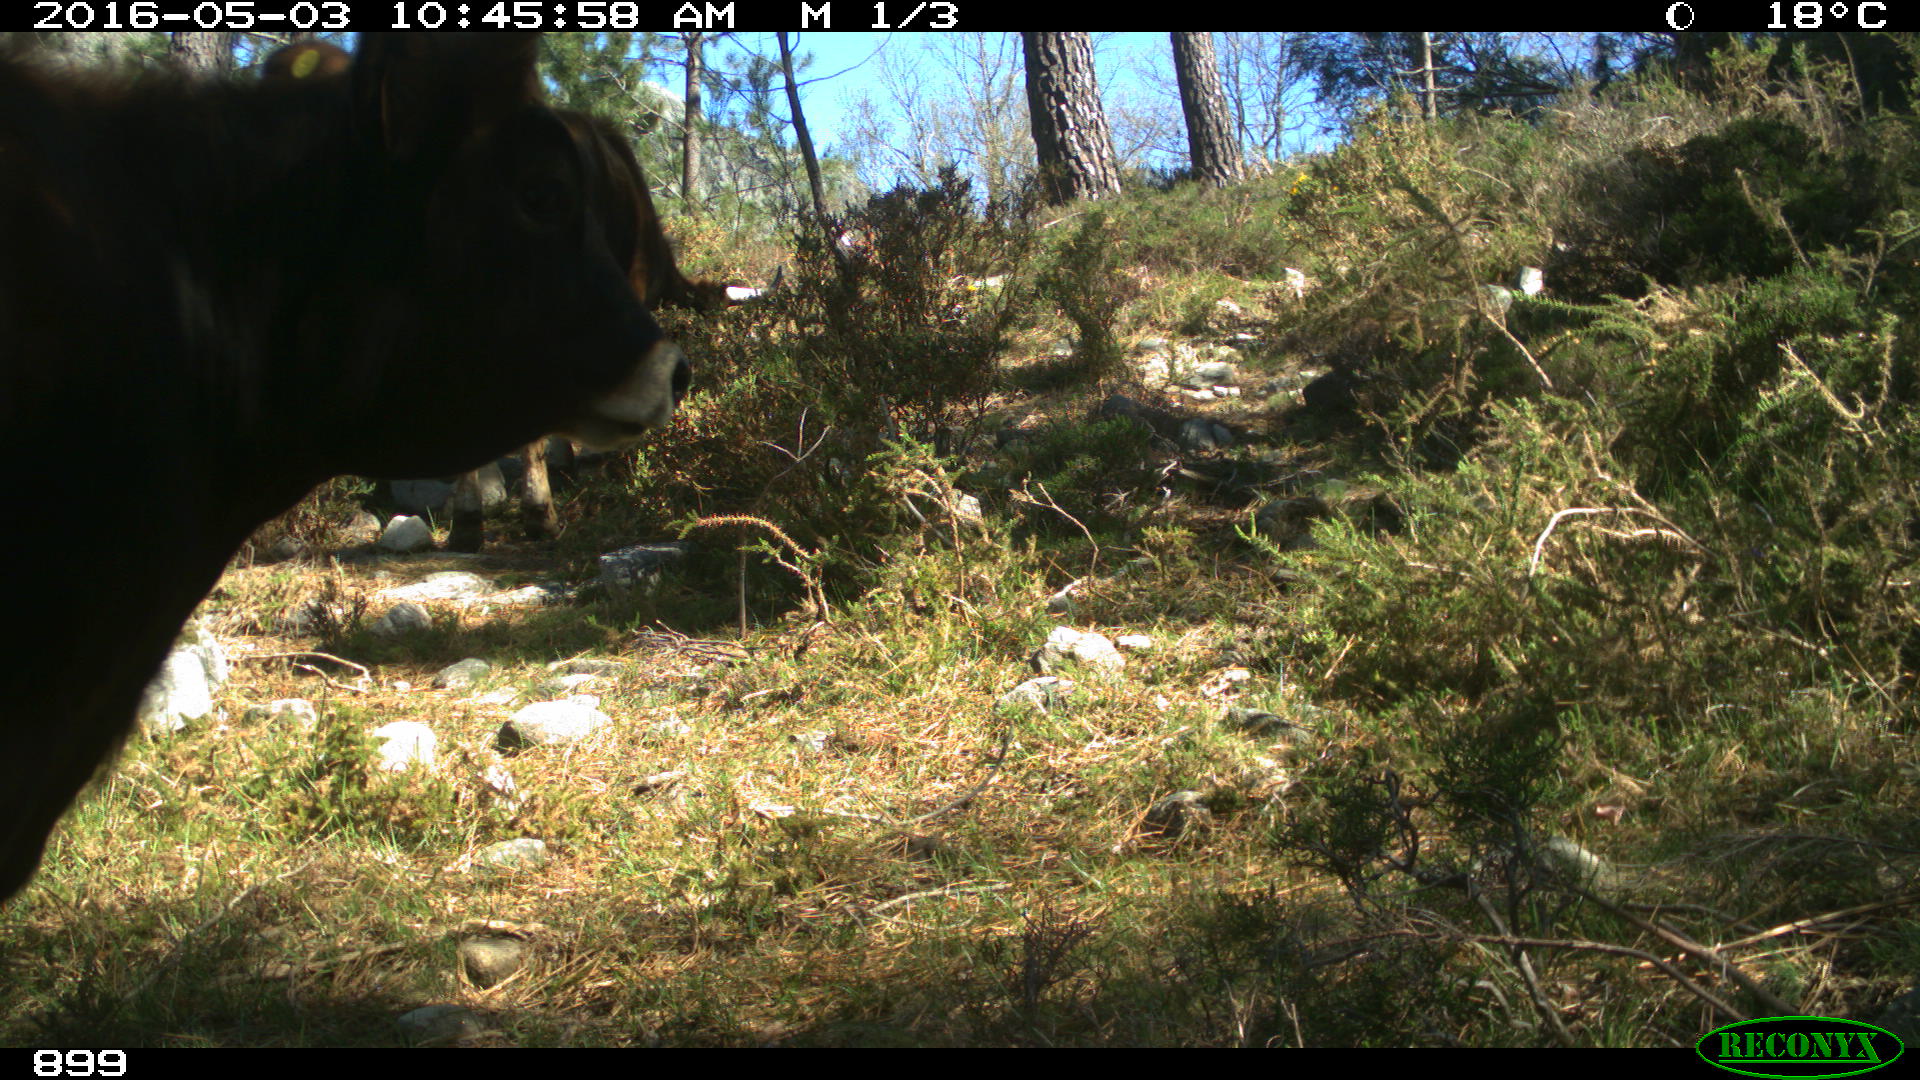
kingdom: Animalia
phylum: Chordata
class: Mammalia
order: Artiodactyla
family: Bovidae
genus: Bos
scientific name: Bos taurus
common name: Domesticated cattle
